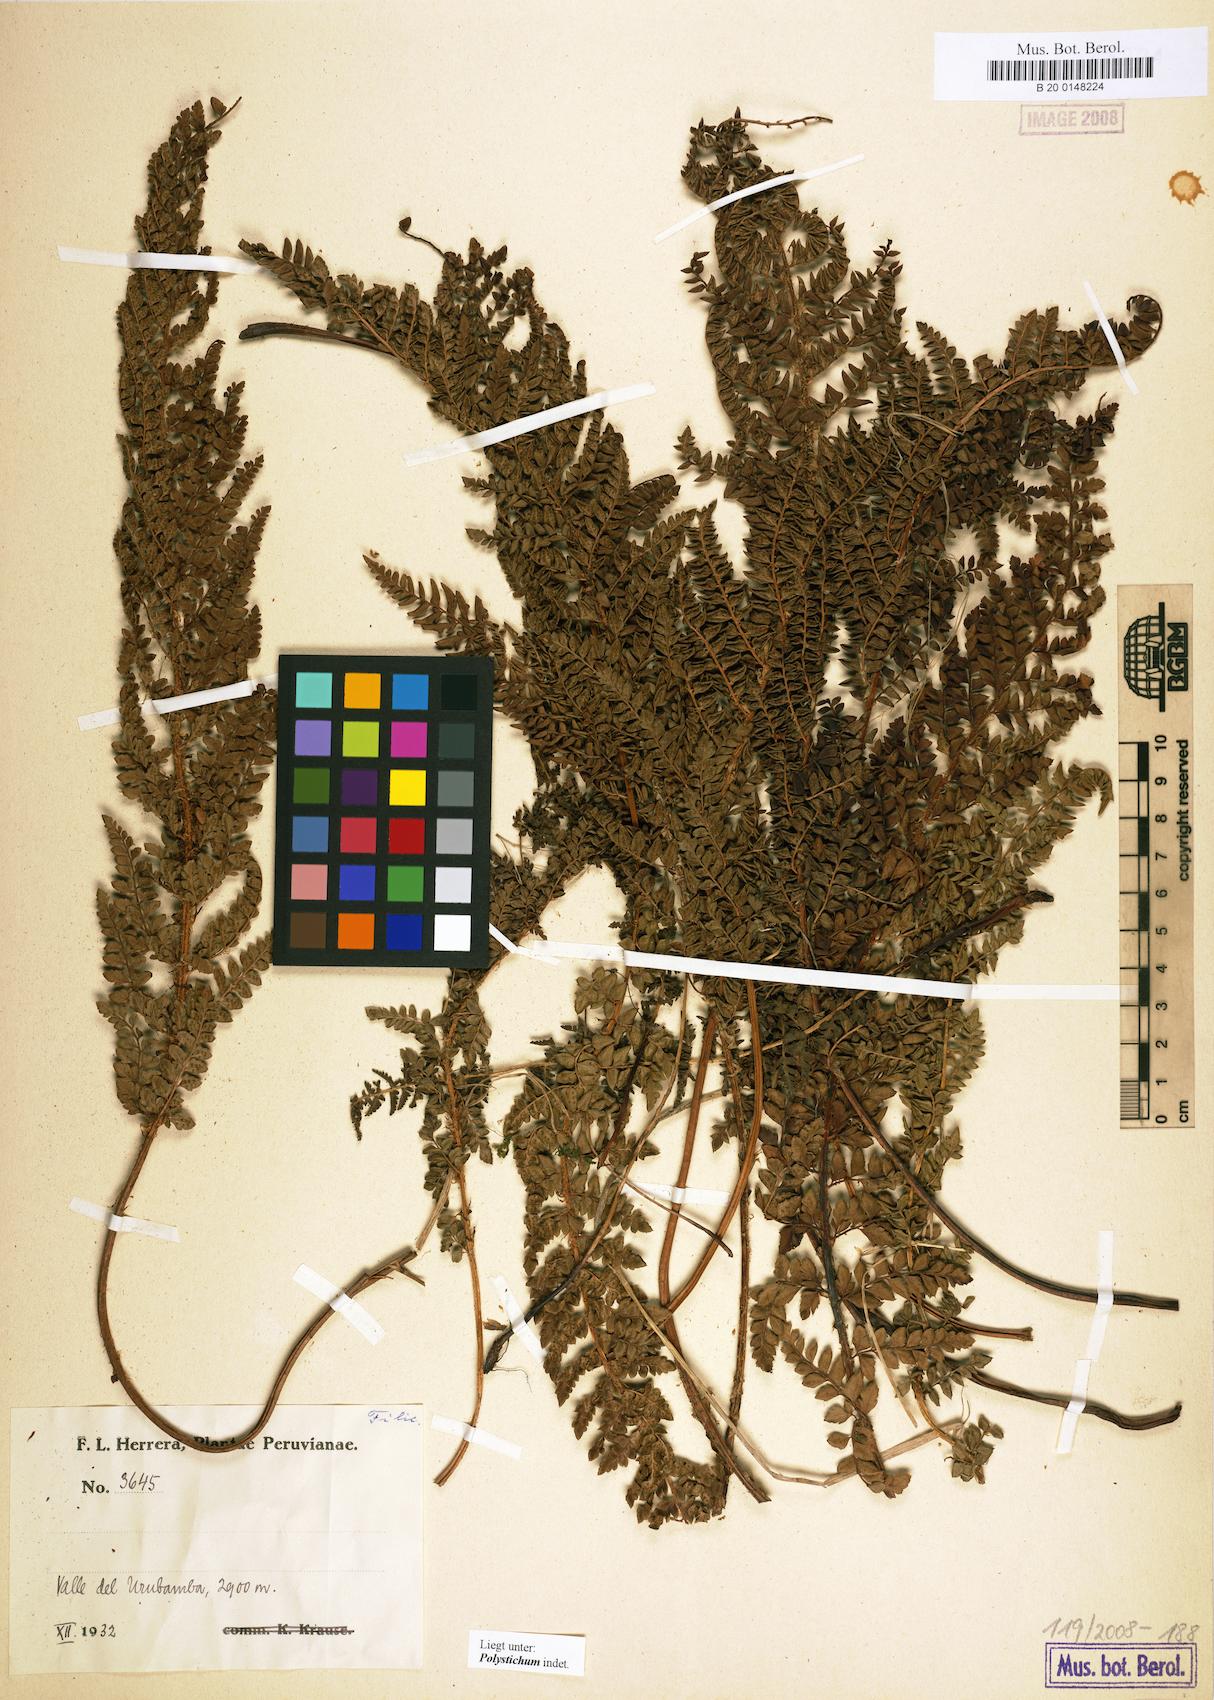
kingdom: Plantae
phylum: Tracheophyta
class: Polypodiopsida
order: Polypodiales
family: Dryopteridaceae
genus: Polystichum
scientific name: Polystichum
